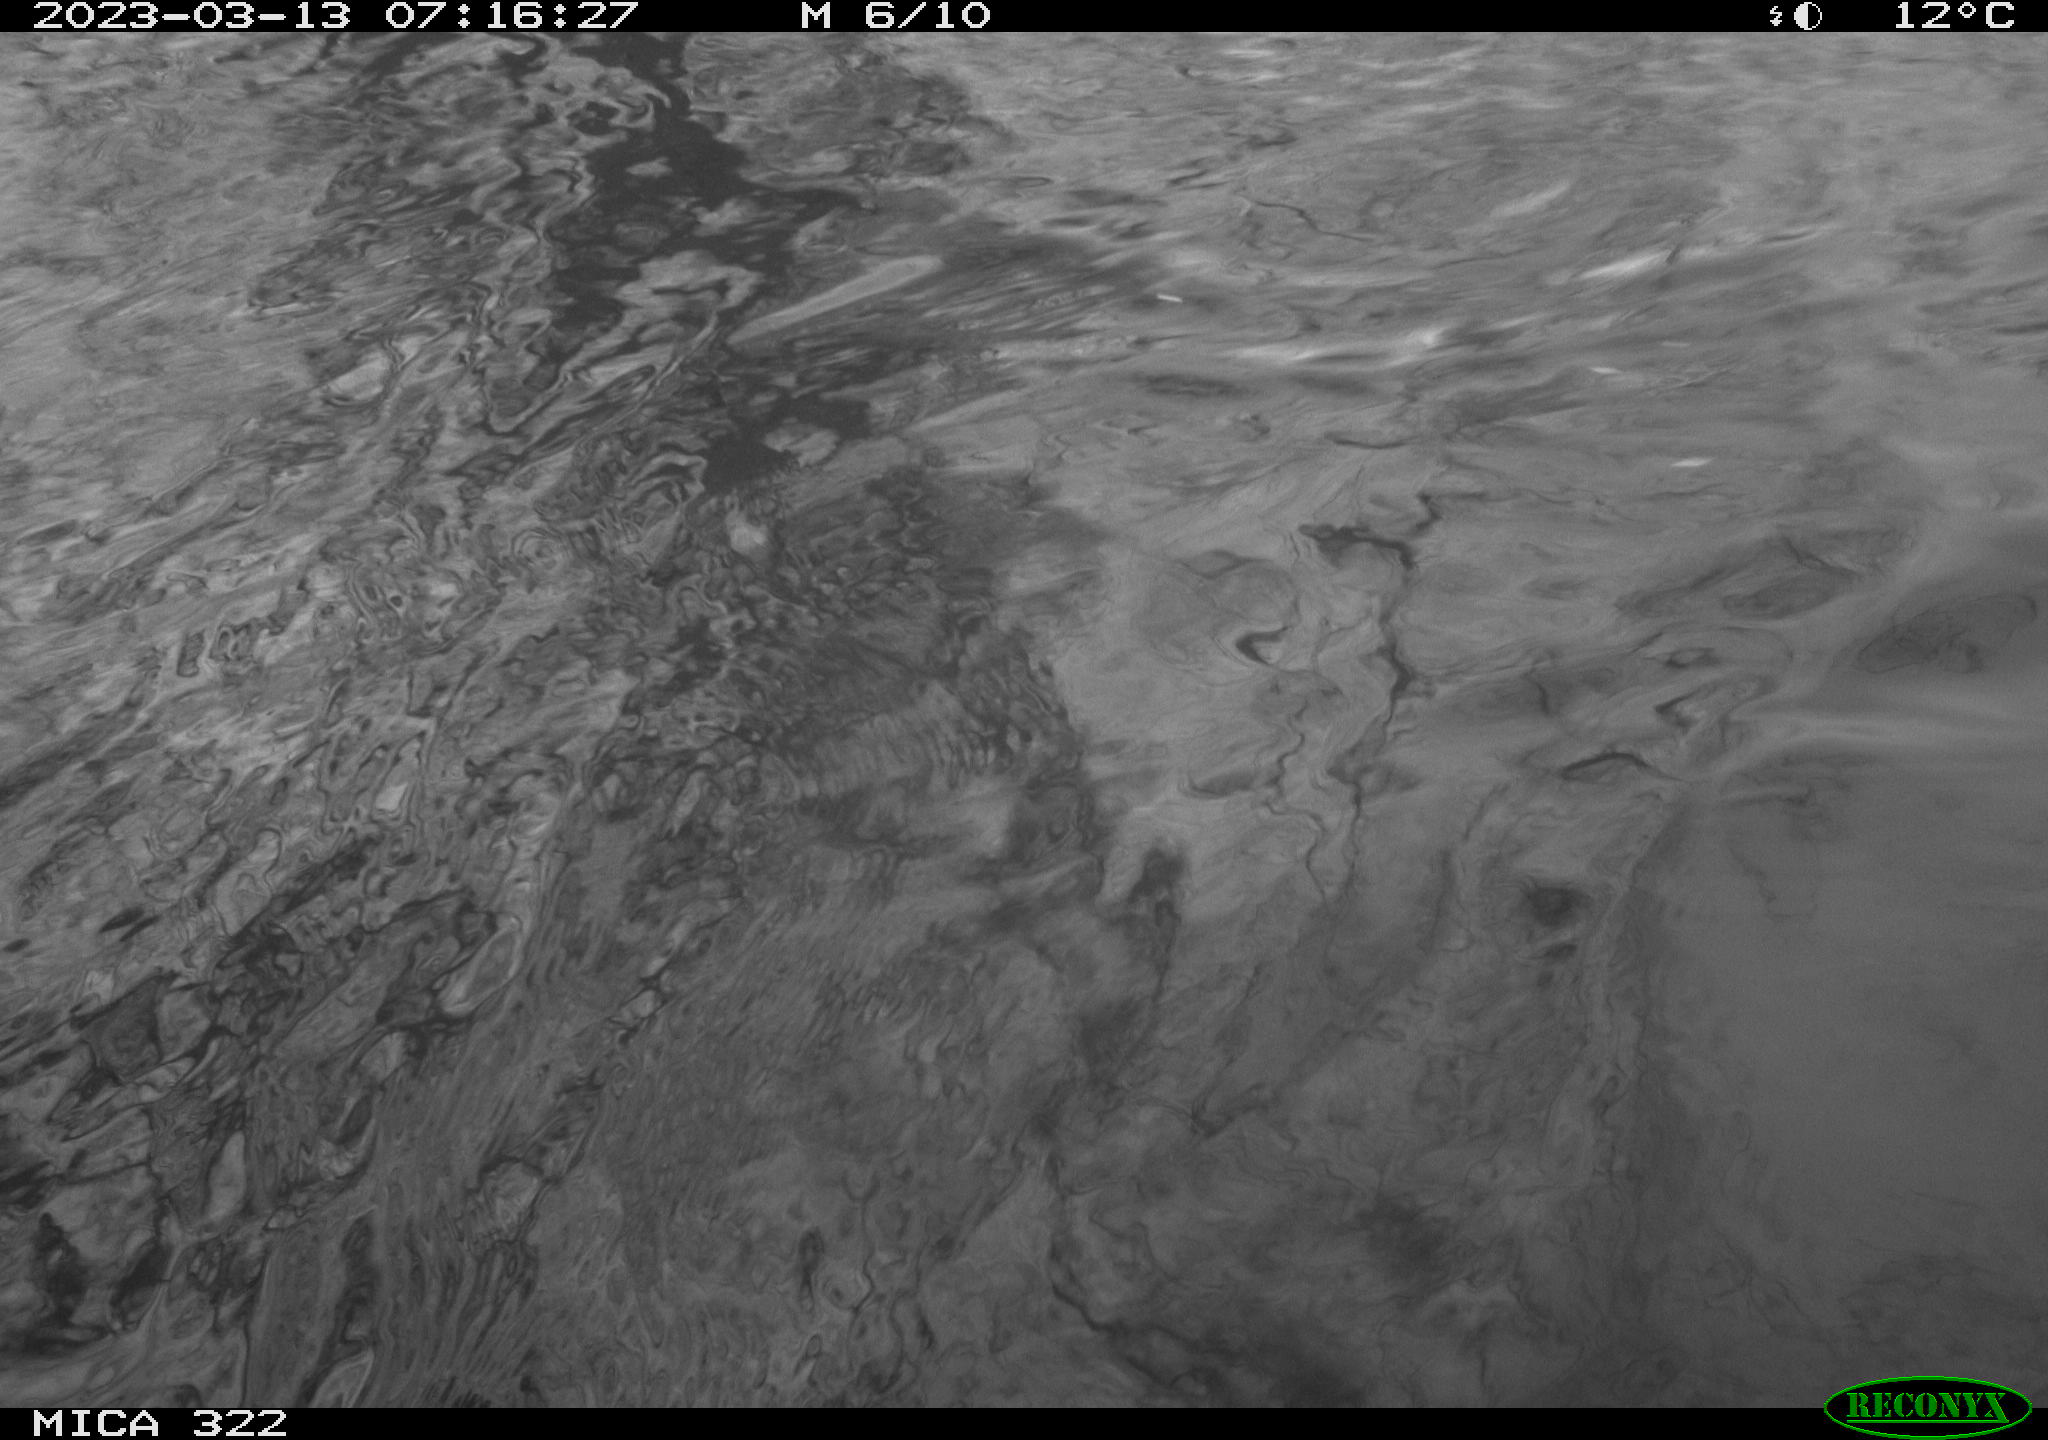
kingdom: Animalia
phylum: Chordata
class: Aves
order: Anseriformes
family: Anatidae
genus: Anas
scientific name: Anas
